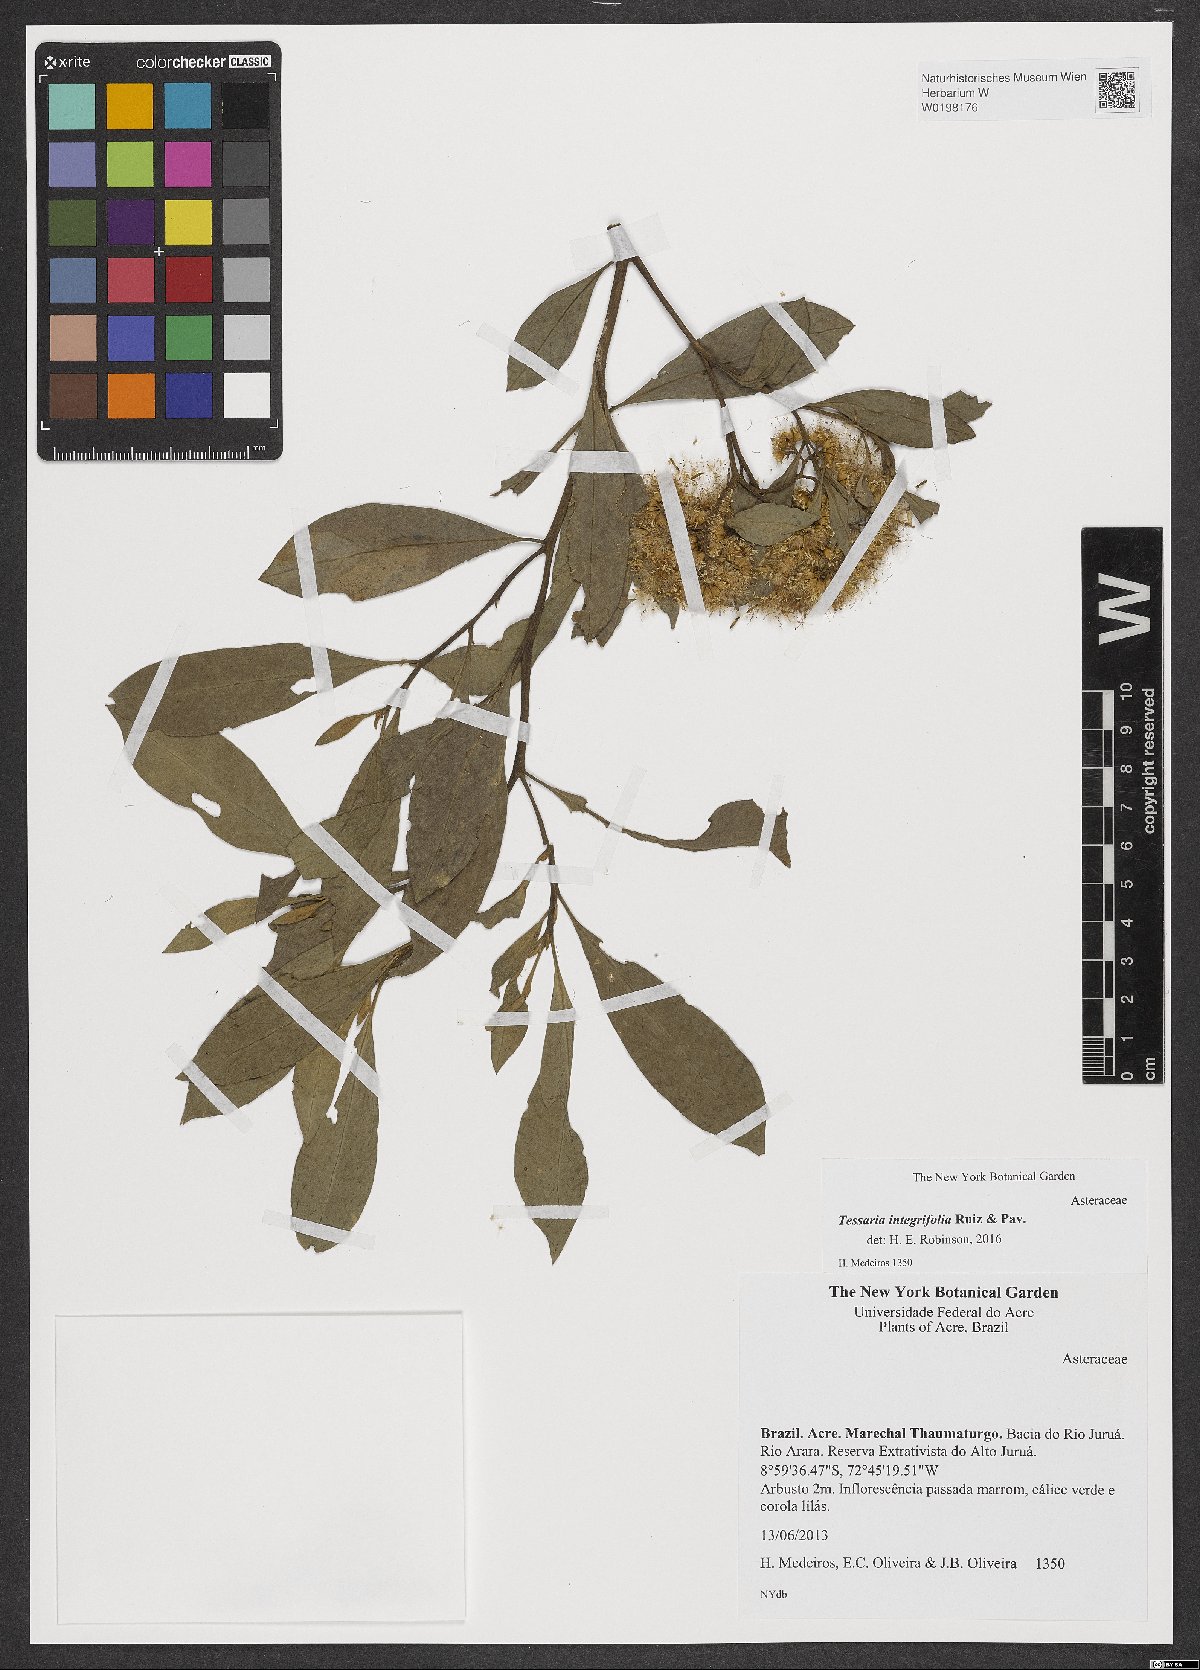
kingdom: Plantae
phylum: Tracheophyta
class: Magnoliopsida
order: Asterales
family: Asteraceae
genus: Tessaria
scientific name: Tessaria integrifolia
